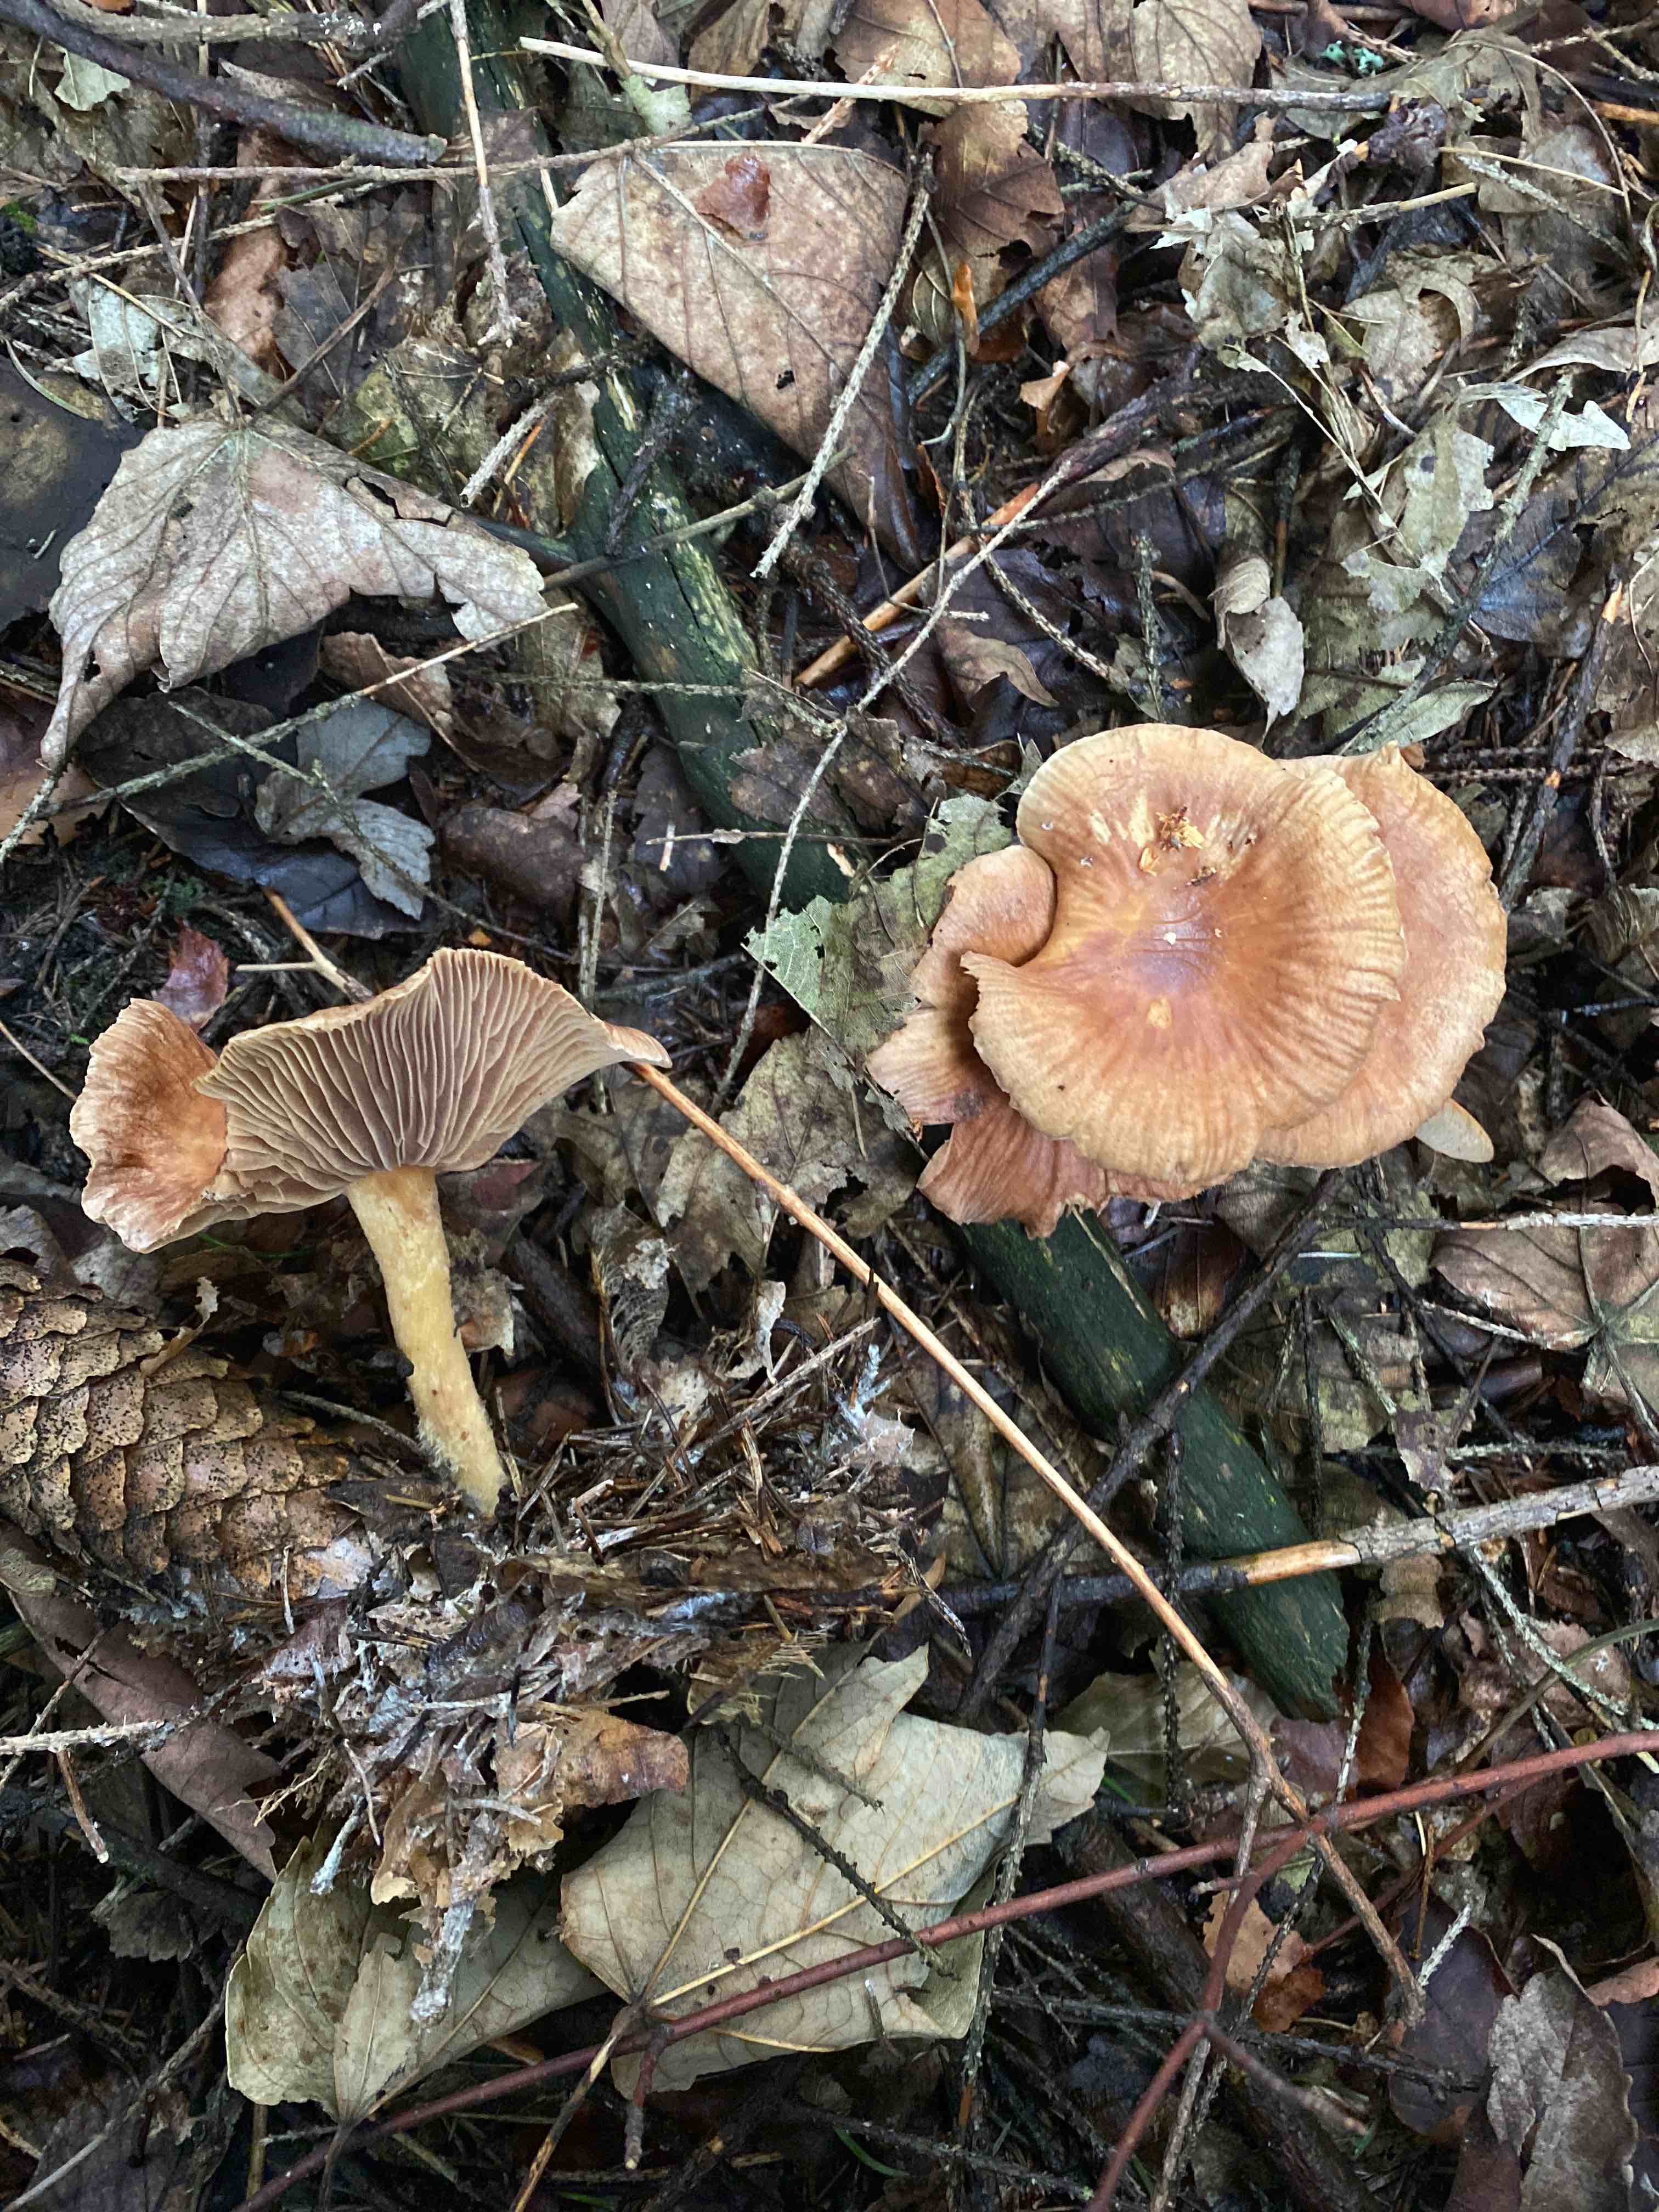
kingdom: Fungi
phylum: Basidiomycota
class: Agaricomycetes
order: Agaricales
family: Omphalotaceae
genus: Collybiopsis
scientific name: Collybiopsis peronata
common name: bestøvlet fladhat
